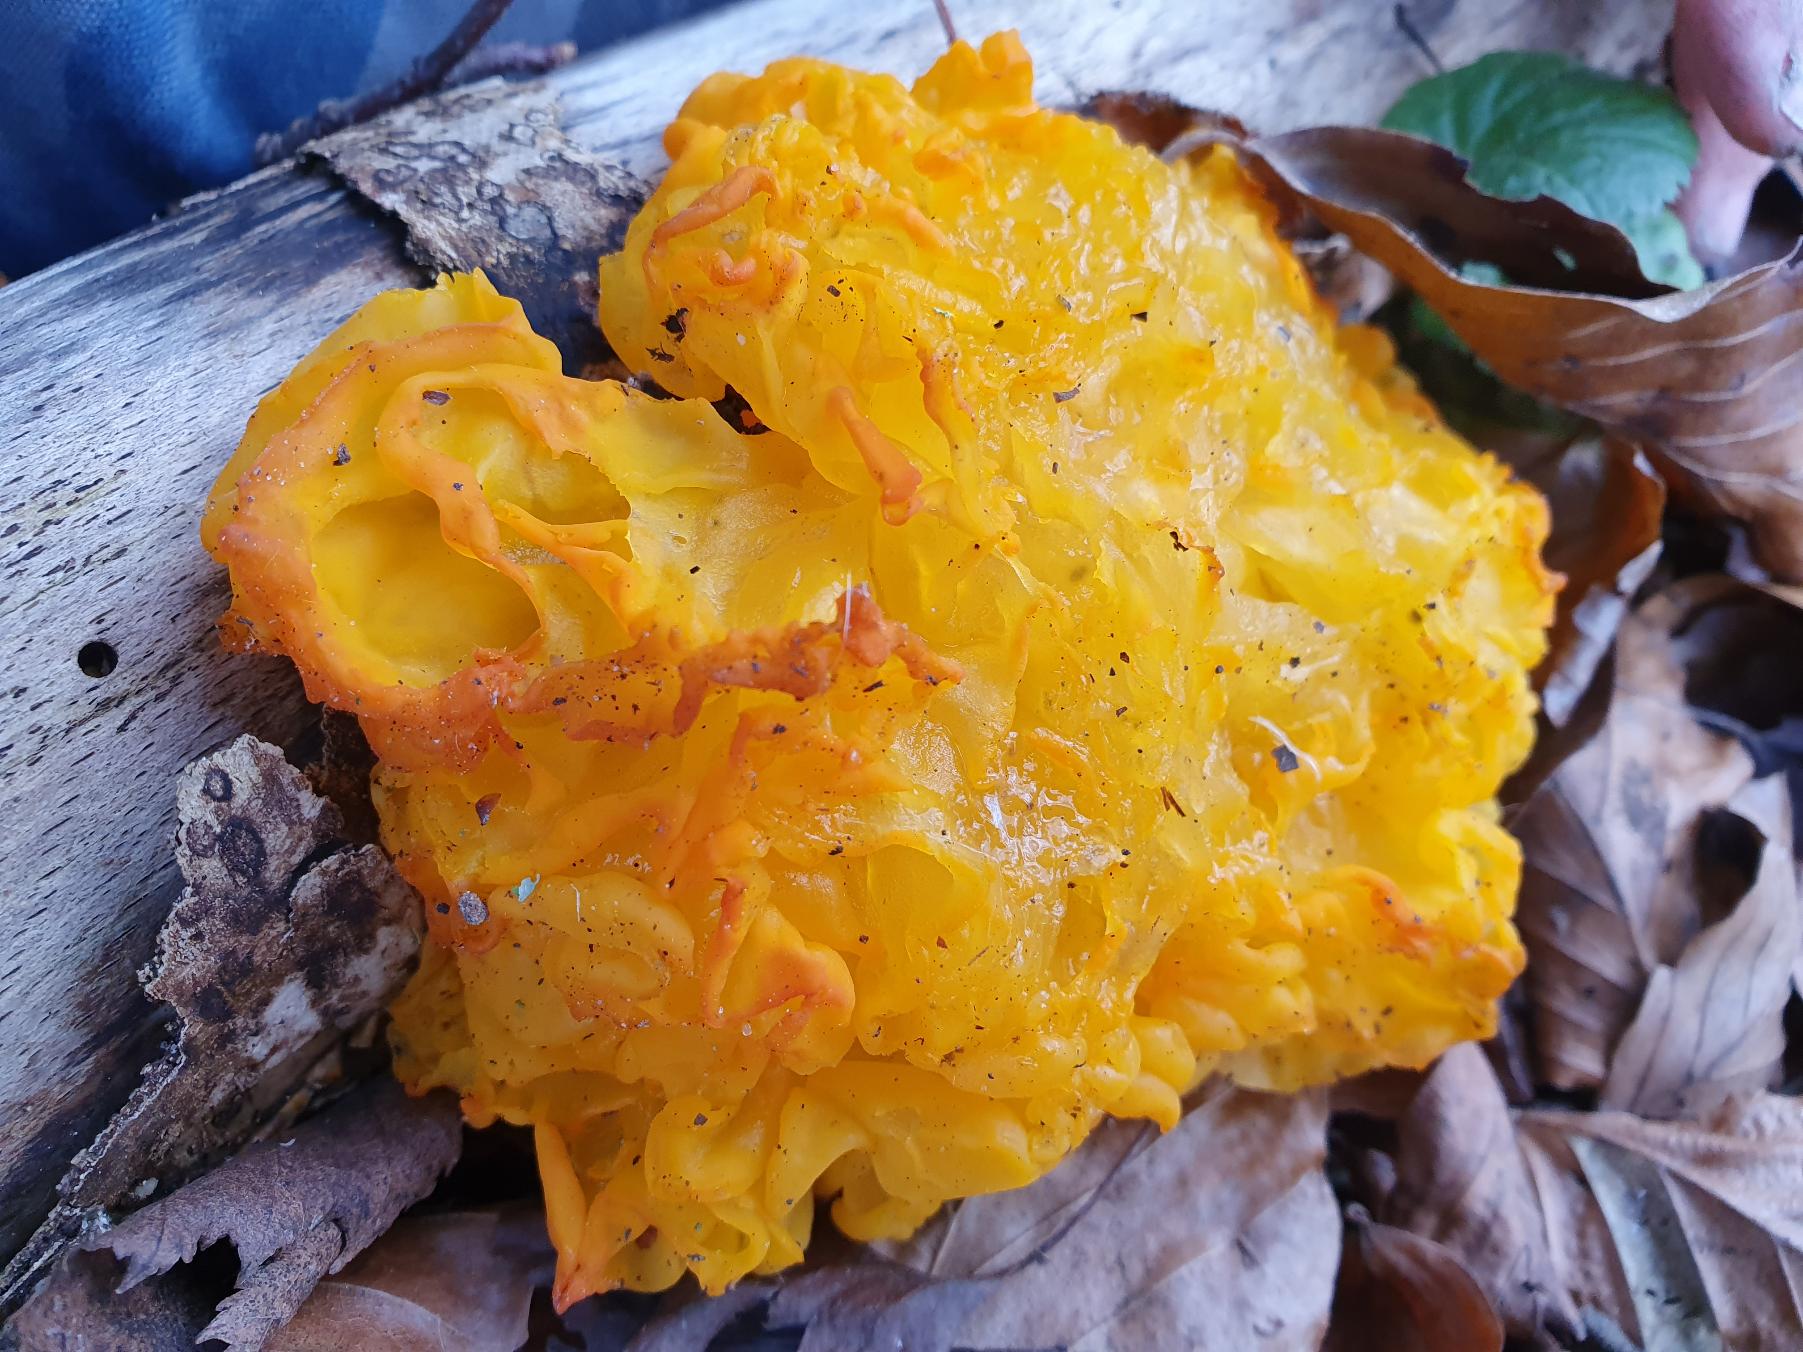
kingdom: Fungi
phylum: Basidiomycota
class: Tremellomycetes
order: Tremellales
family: Tremellaceae
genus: Tremella
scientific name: Tremella mesenterica
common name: Gul bævresvamp
